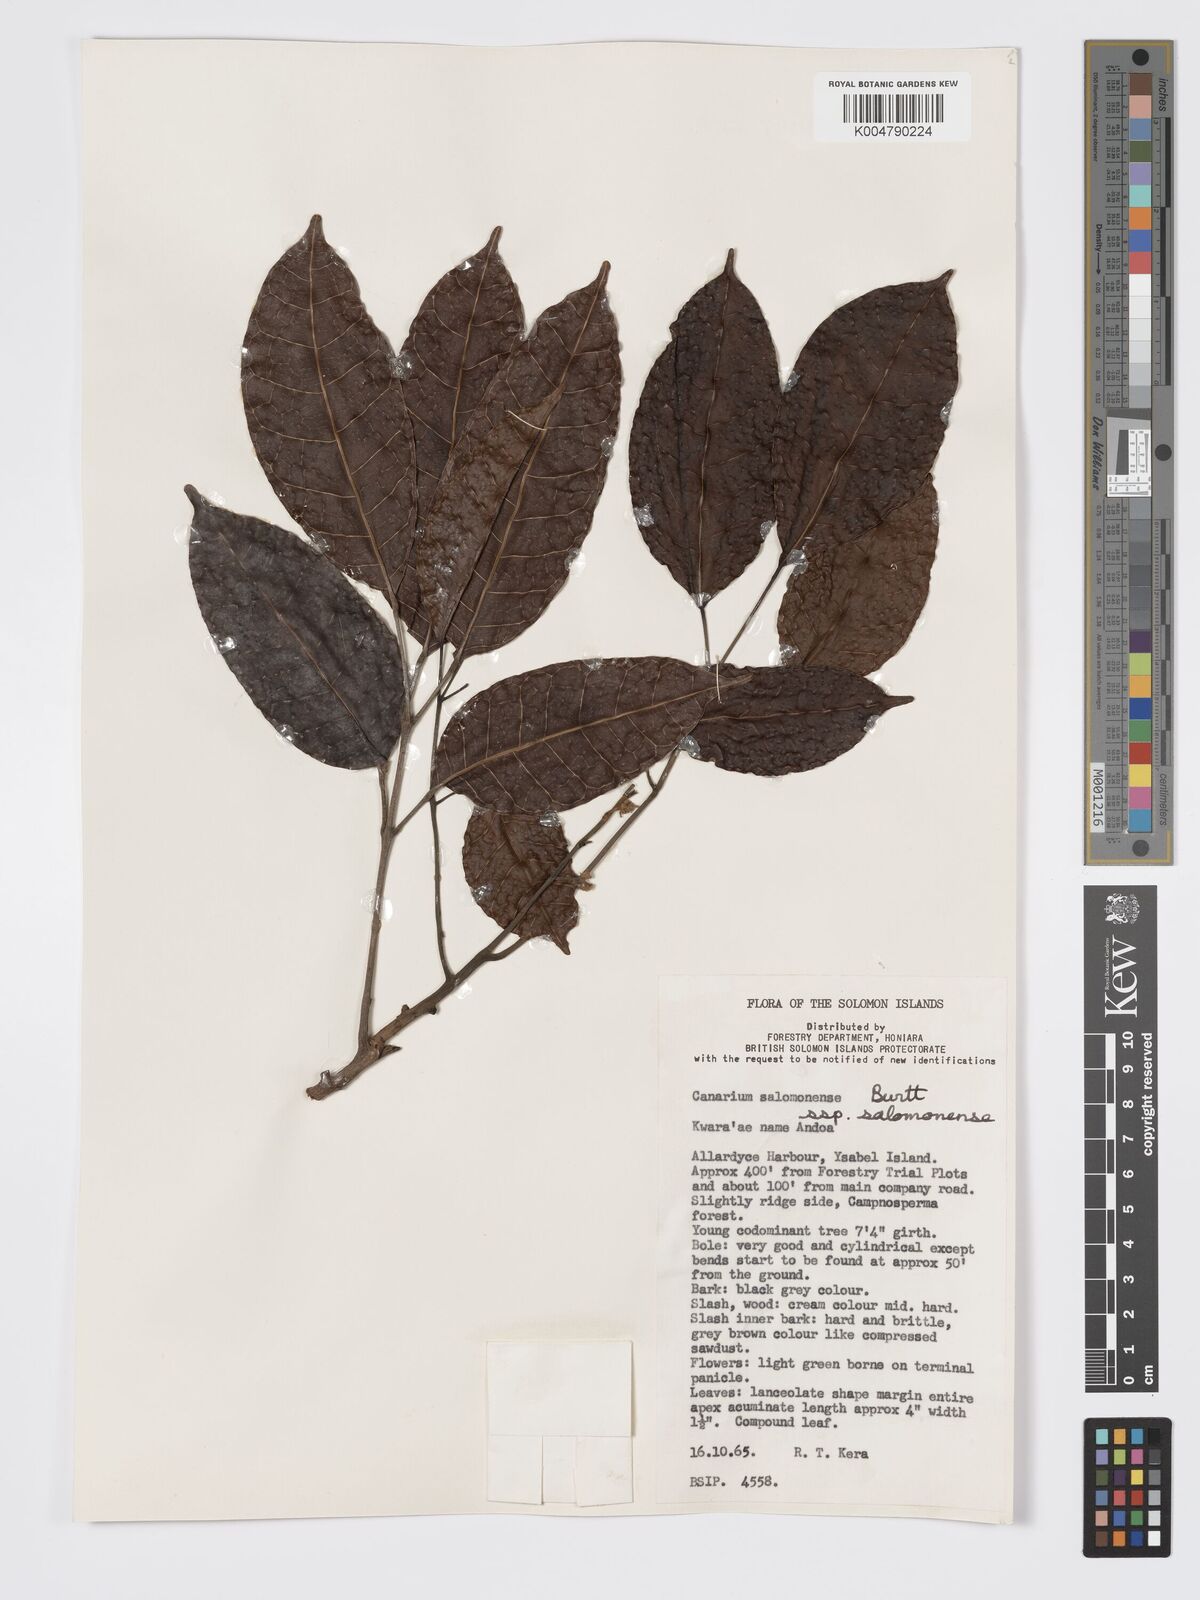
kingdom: Plantae
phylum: Tracheophyta
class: Magnoliopsida
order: Sapindales
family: Burseraceae
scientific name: Burseraceae
